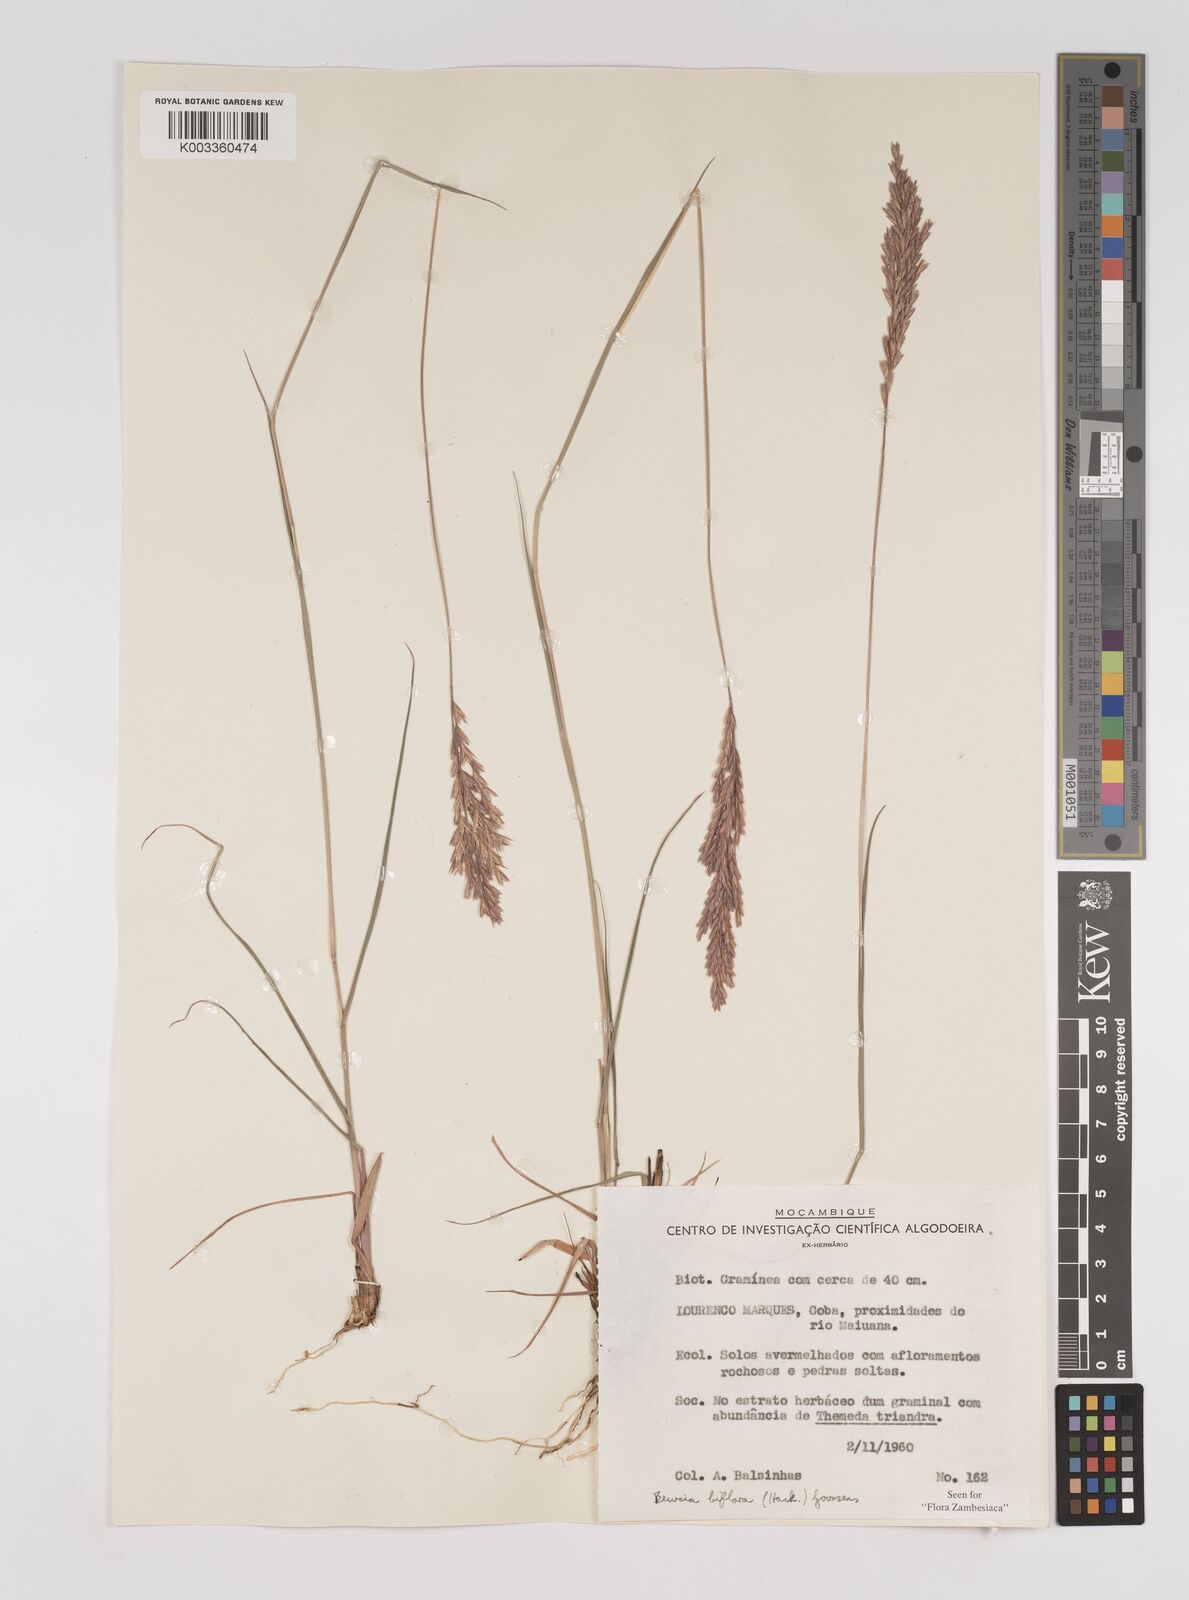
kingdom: Plantae
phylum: Tracheophyta
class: Liliopsida
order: Poales
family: Poaceae
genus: Bewsia
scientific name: Bewsia biflora
